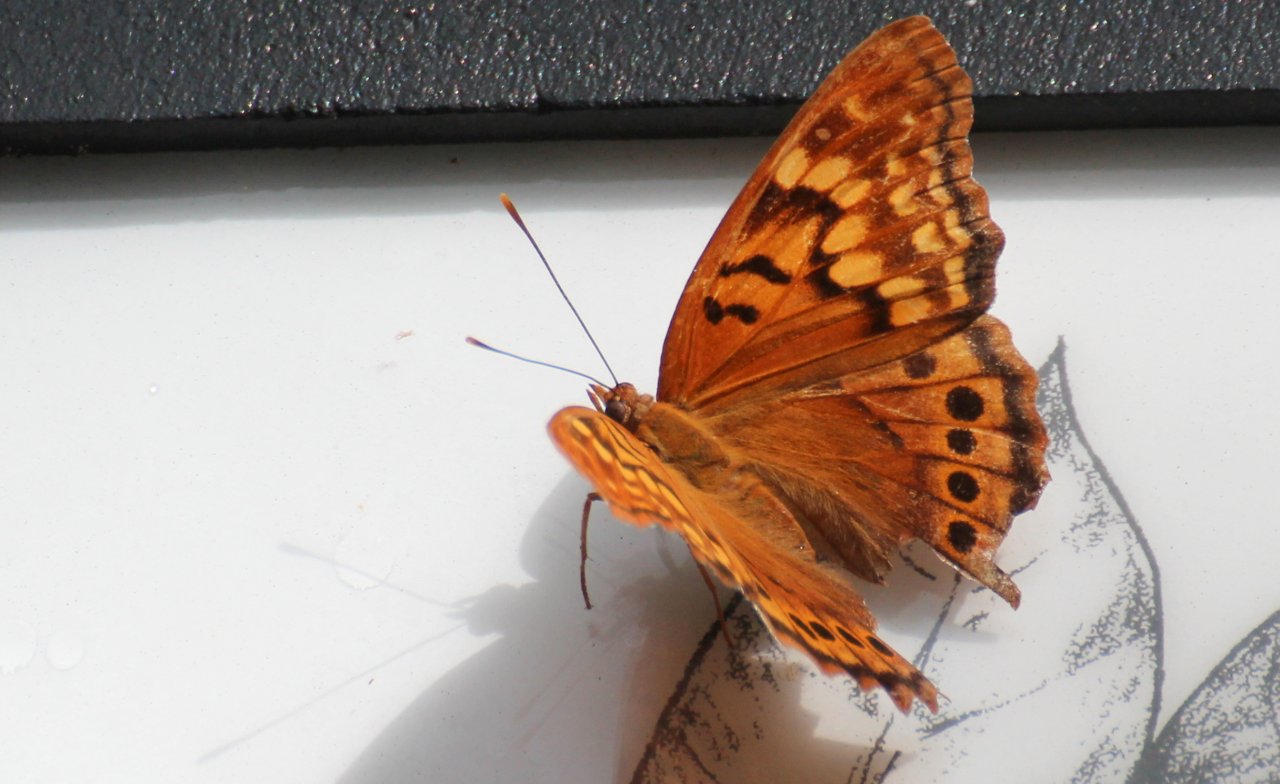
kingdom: Animalia
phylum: Arthropoda
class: Insecta
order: Lepidoptera
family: Nymphalidae
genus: Euptoieta
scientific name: Euptoieta claudia
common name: Variegated Fritillary
